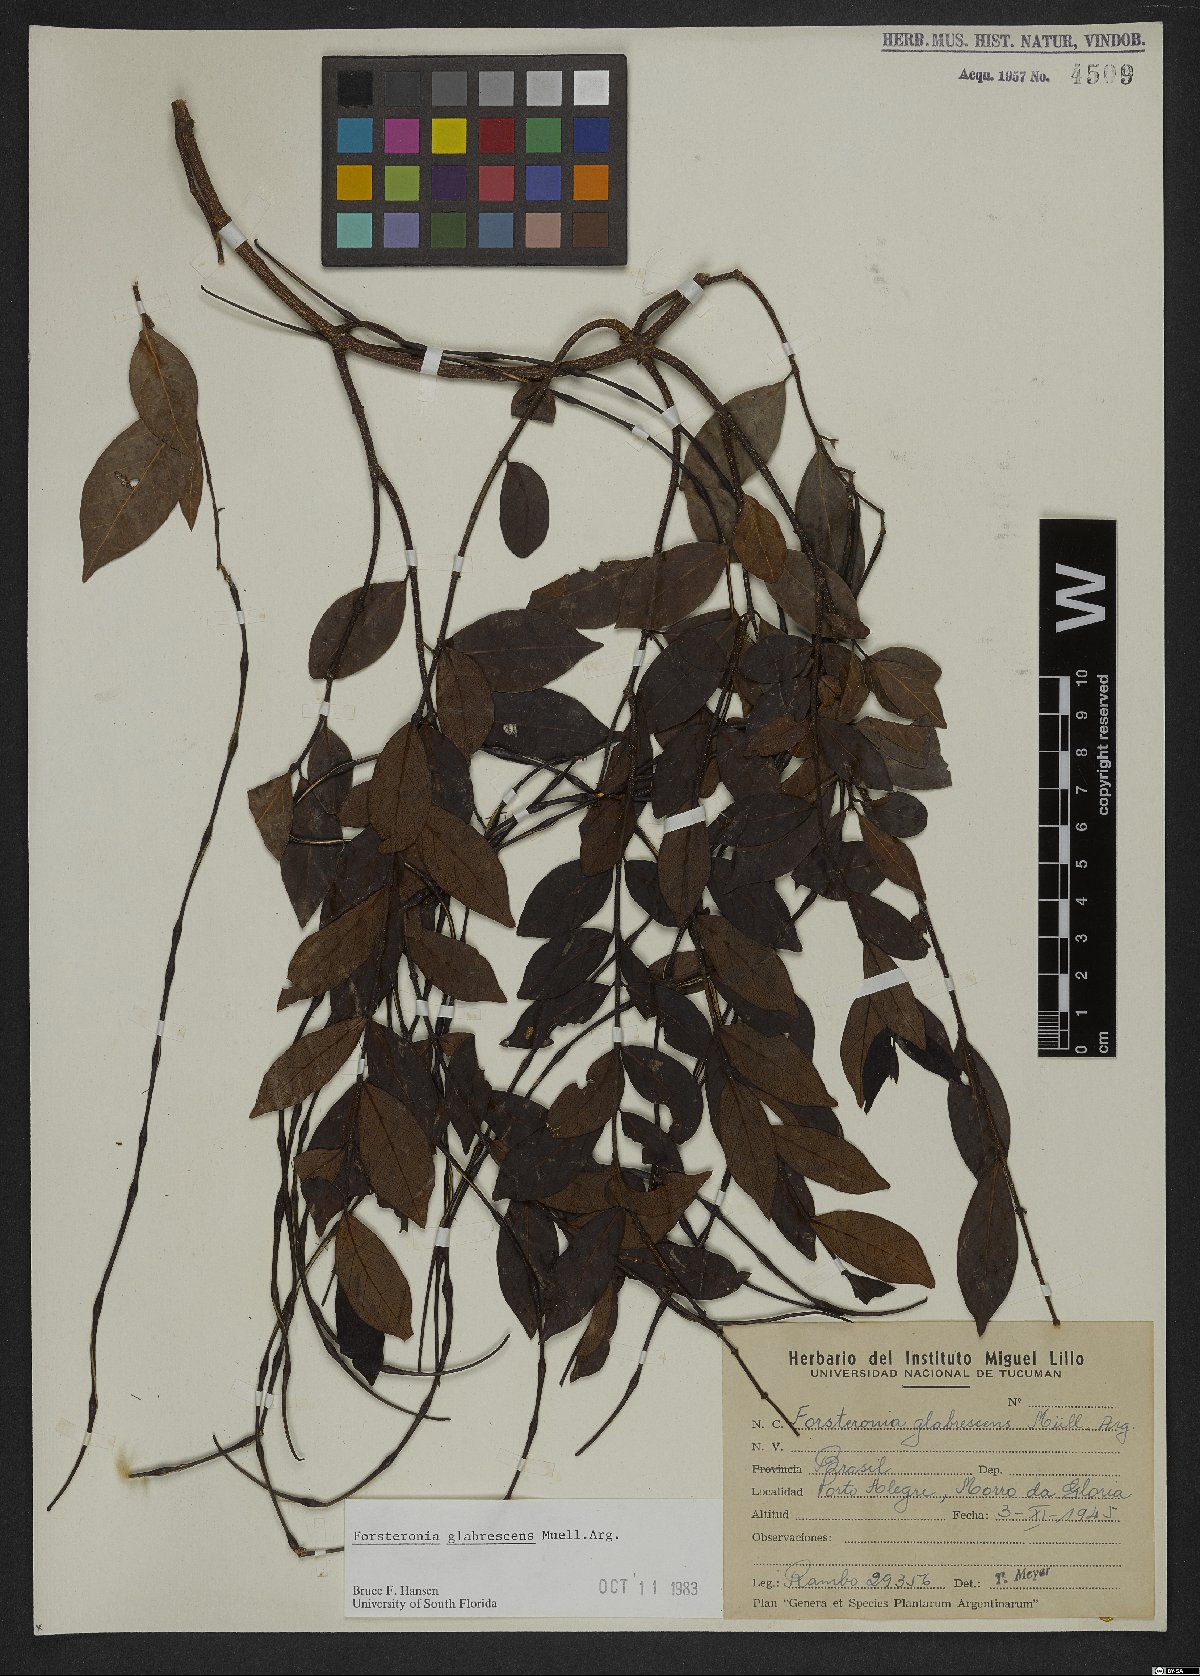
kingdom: Plantae
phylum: Tracheophyta
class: Magnoliopsida
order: Gentianales
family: Apocynaceae
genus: Forsteronia
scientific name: Forsteronia glabrescens
